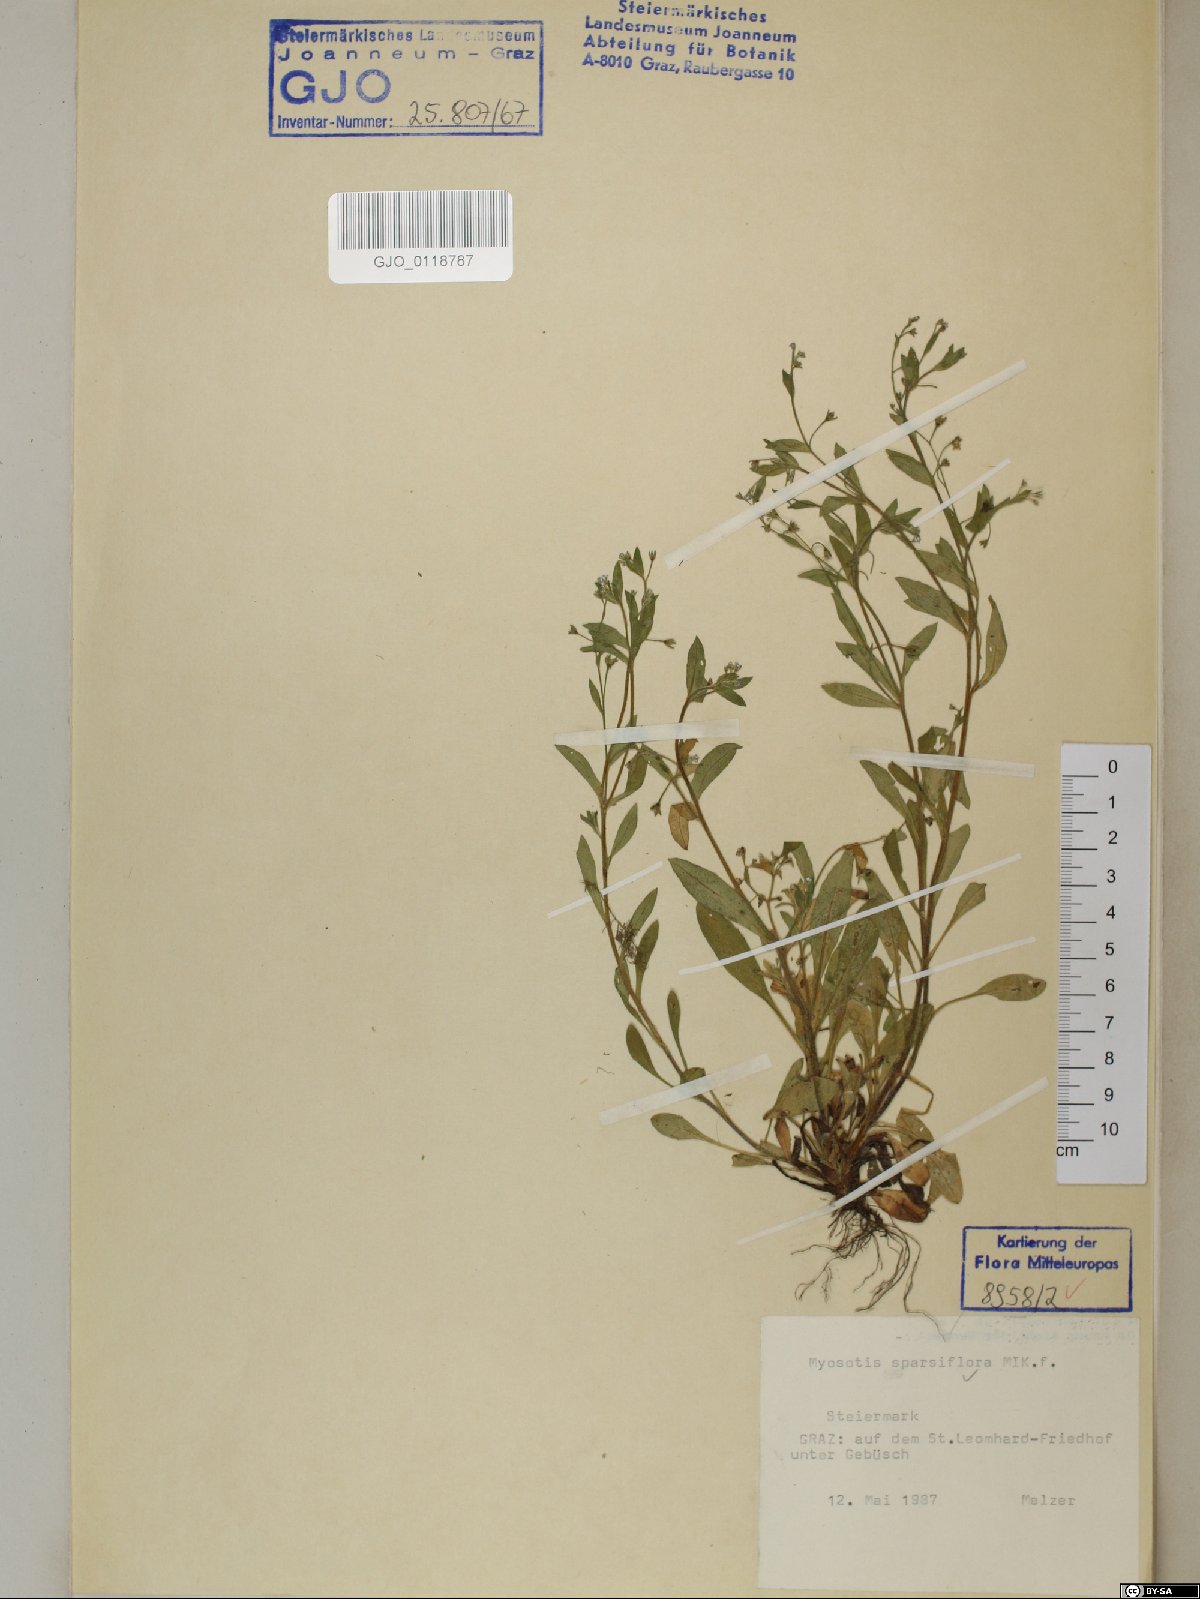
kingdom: Plantae
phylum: Tracheophyta
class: Magnoliopsida
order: Boraginales
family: Boraginaceae
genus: Myosotis
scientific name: Myosotis sparsiflora
